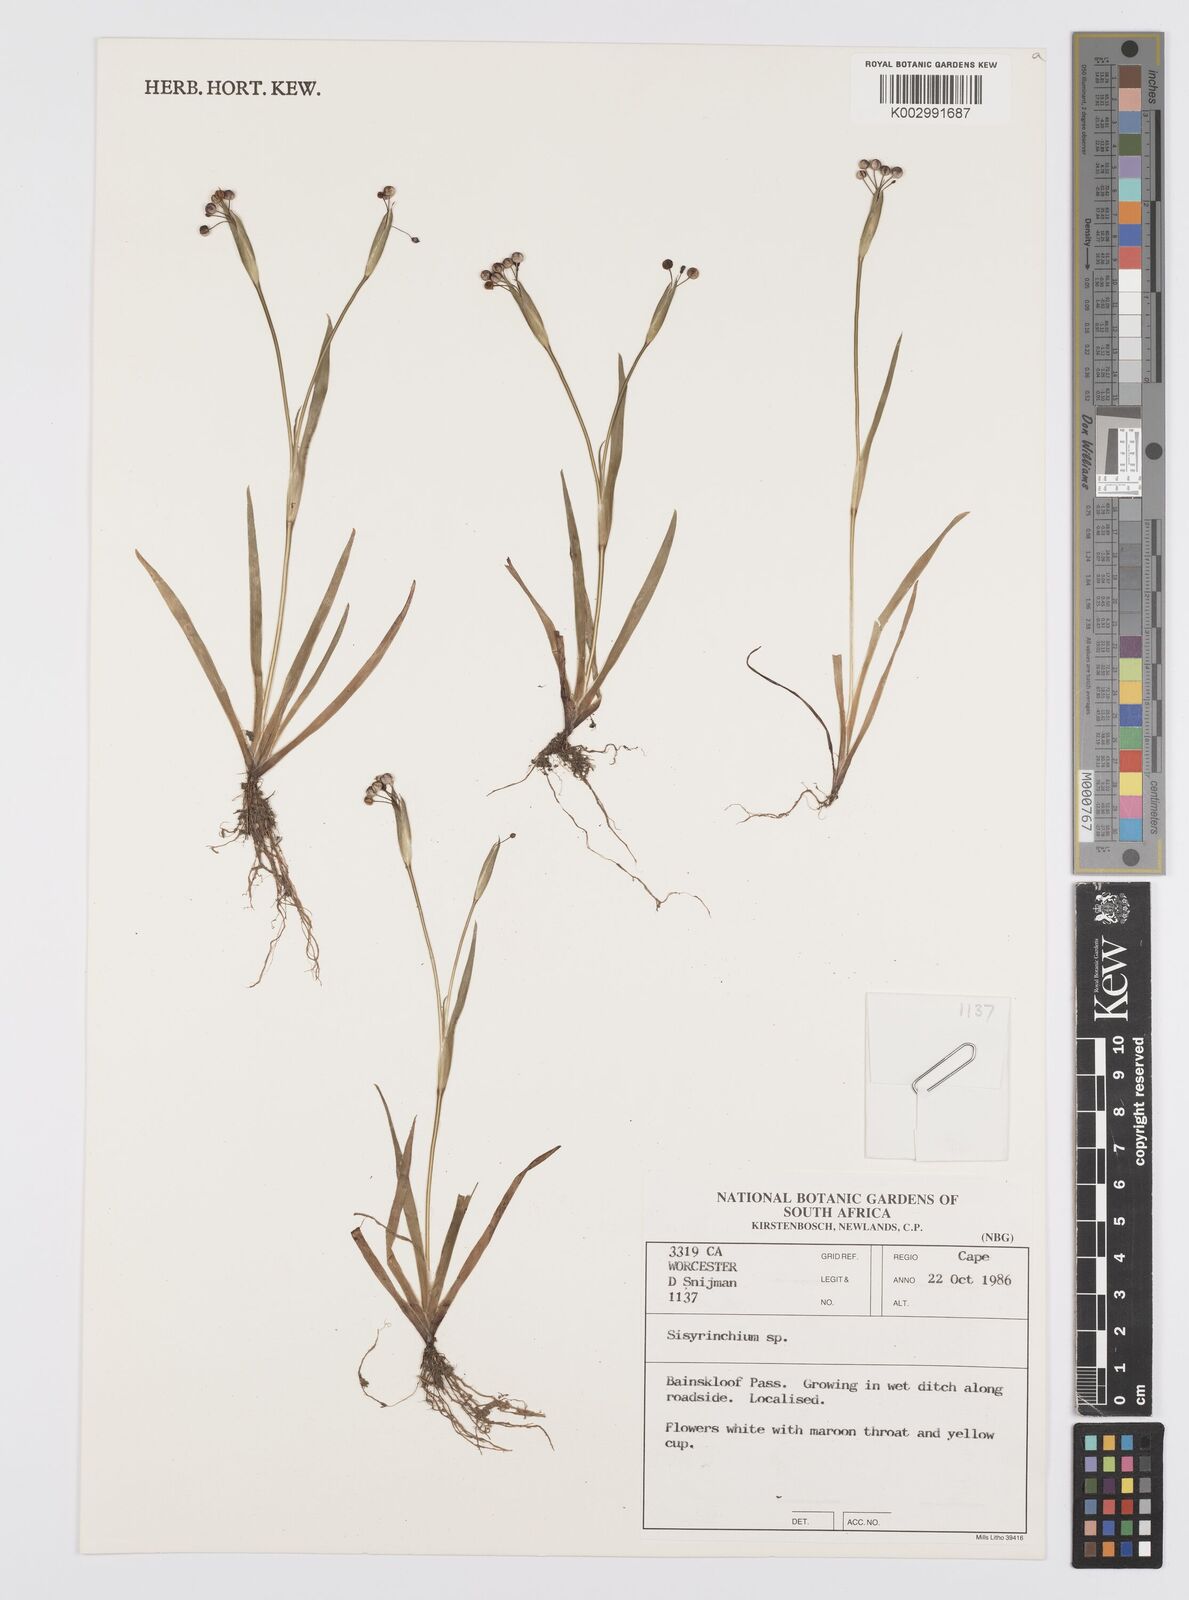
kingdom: Plantae
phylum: Tracheophyta
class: Liliopsida
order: Asparagales
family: Iridaceae
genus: Sisyrinchium
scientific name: Sisyrinchium
